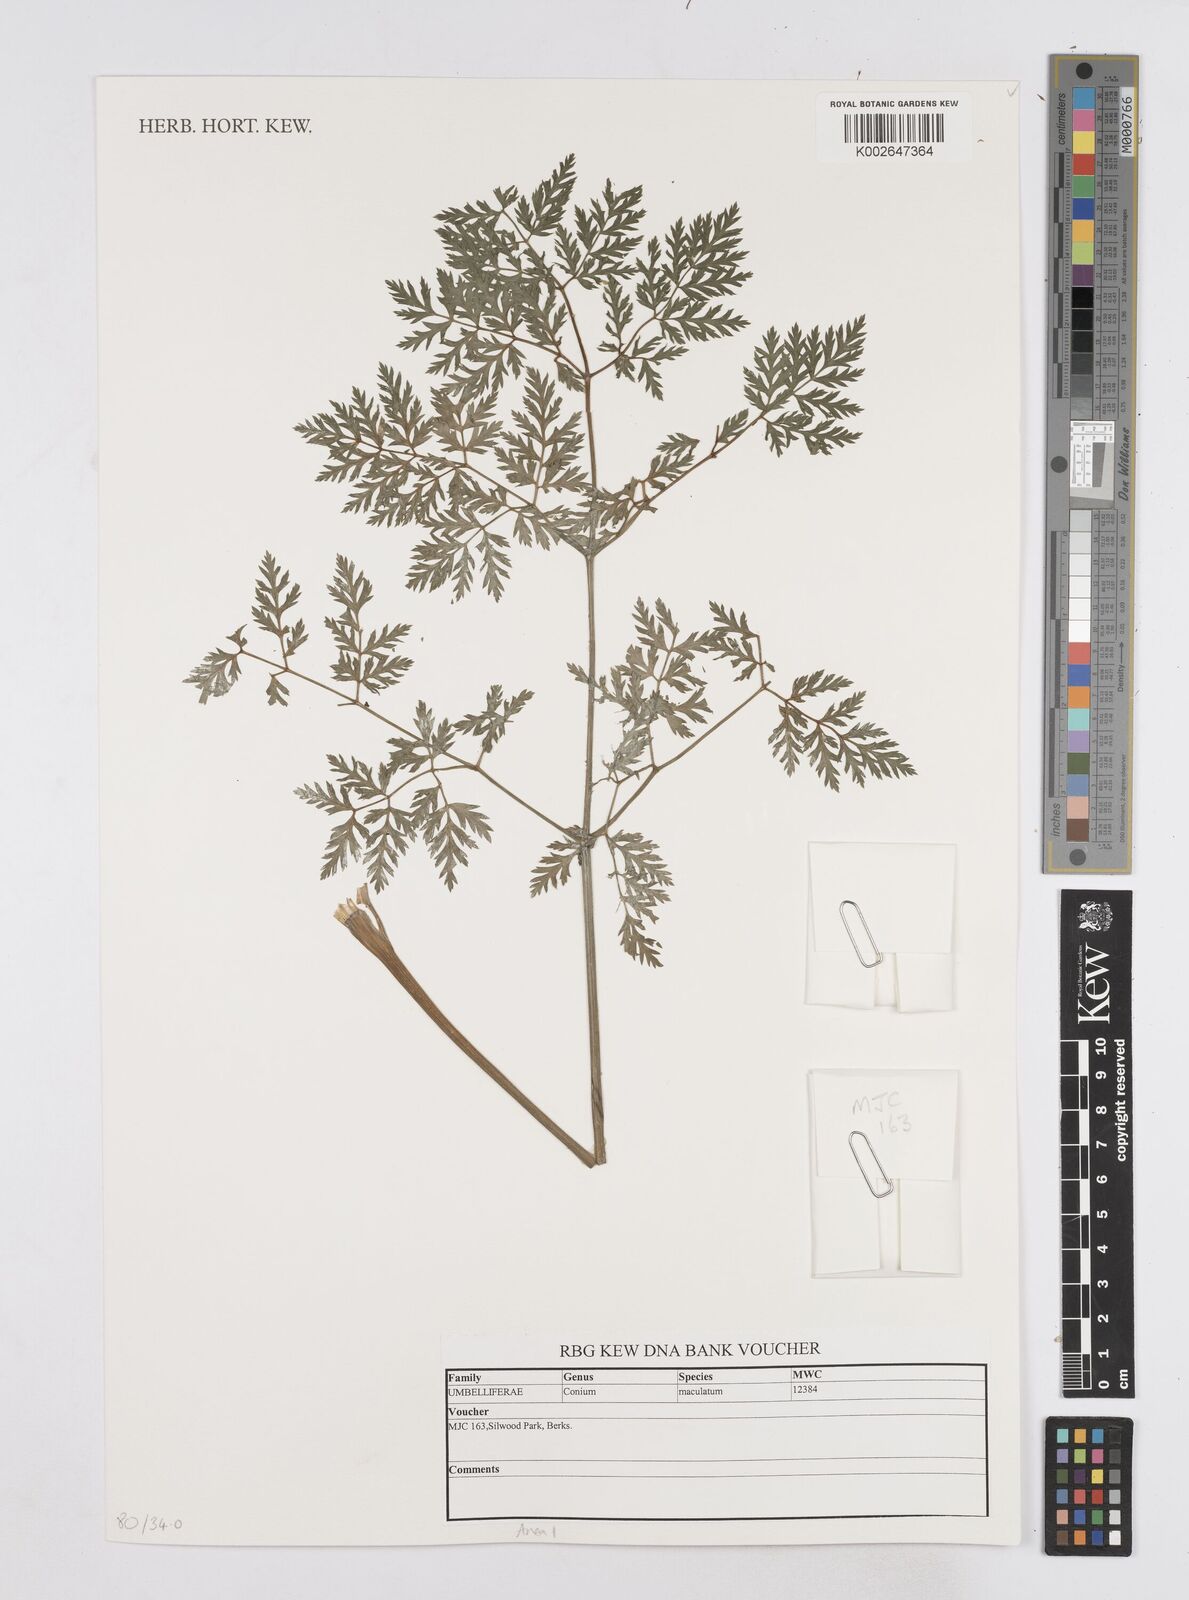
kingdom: Plantae
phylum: Tracheophyta
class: Magnoliopsida
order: Apiales
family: Apiaceae
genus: Conium
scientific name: Conium maculatum
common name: Hemlock
